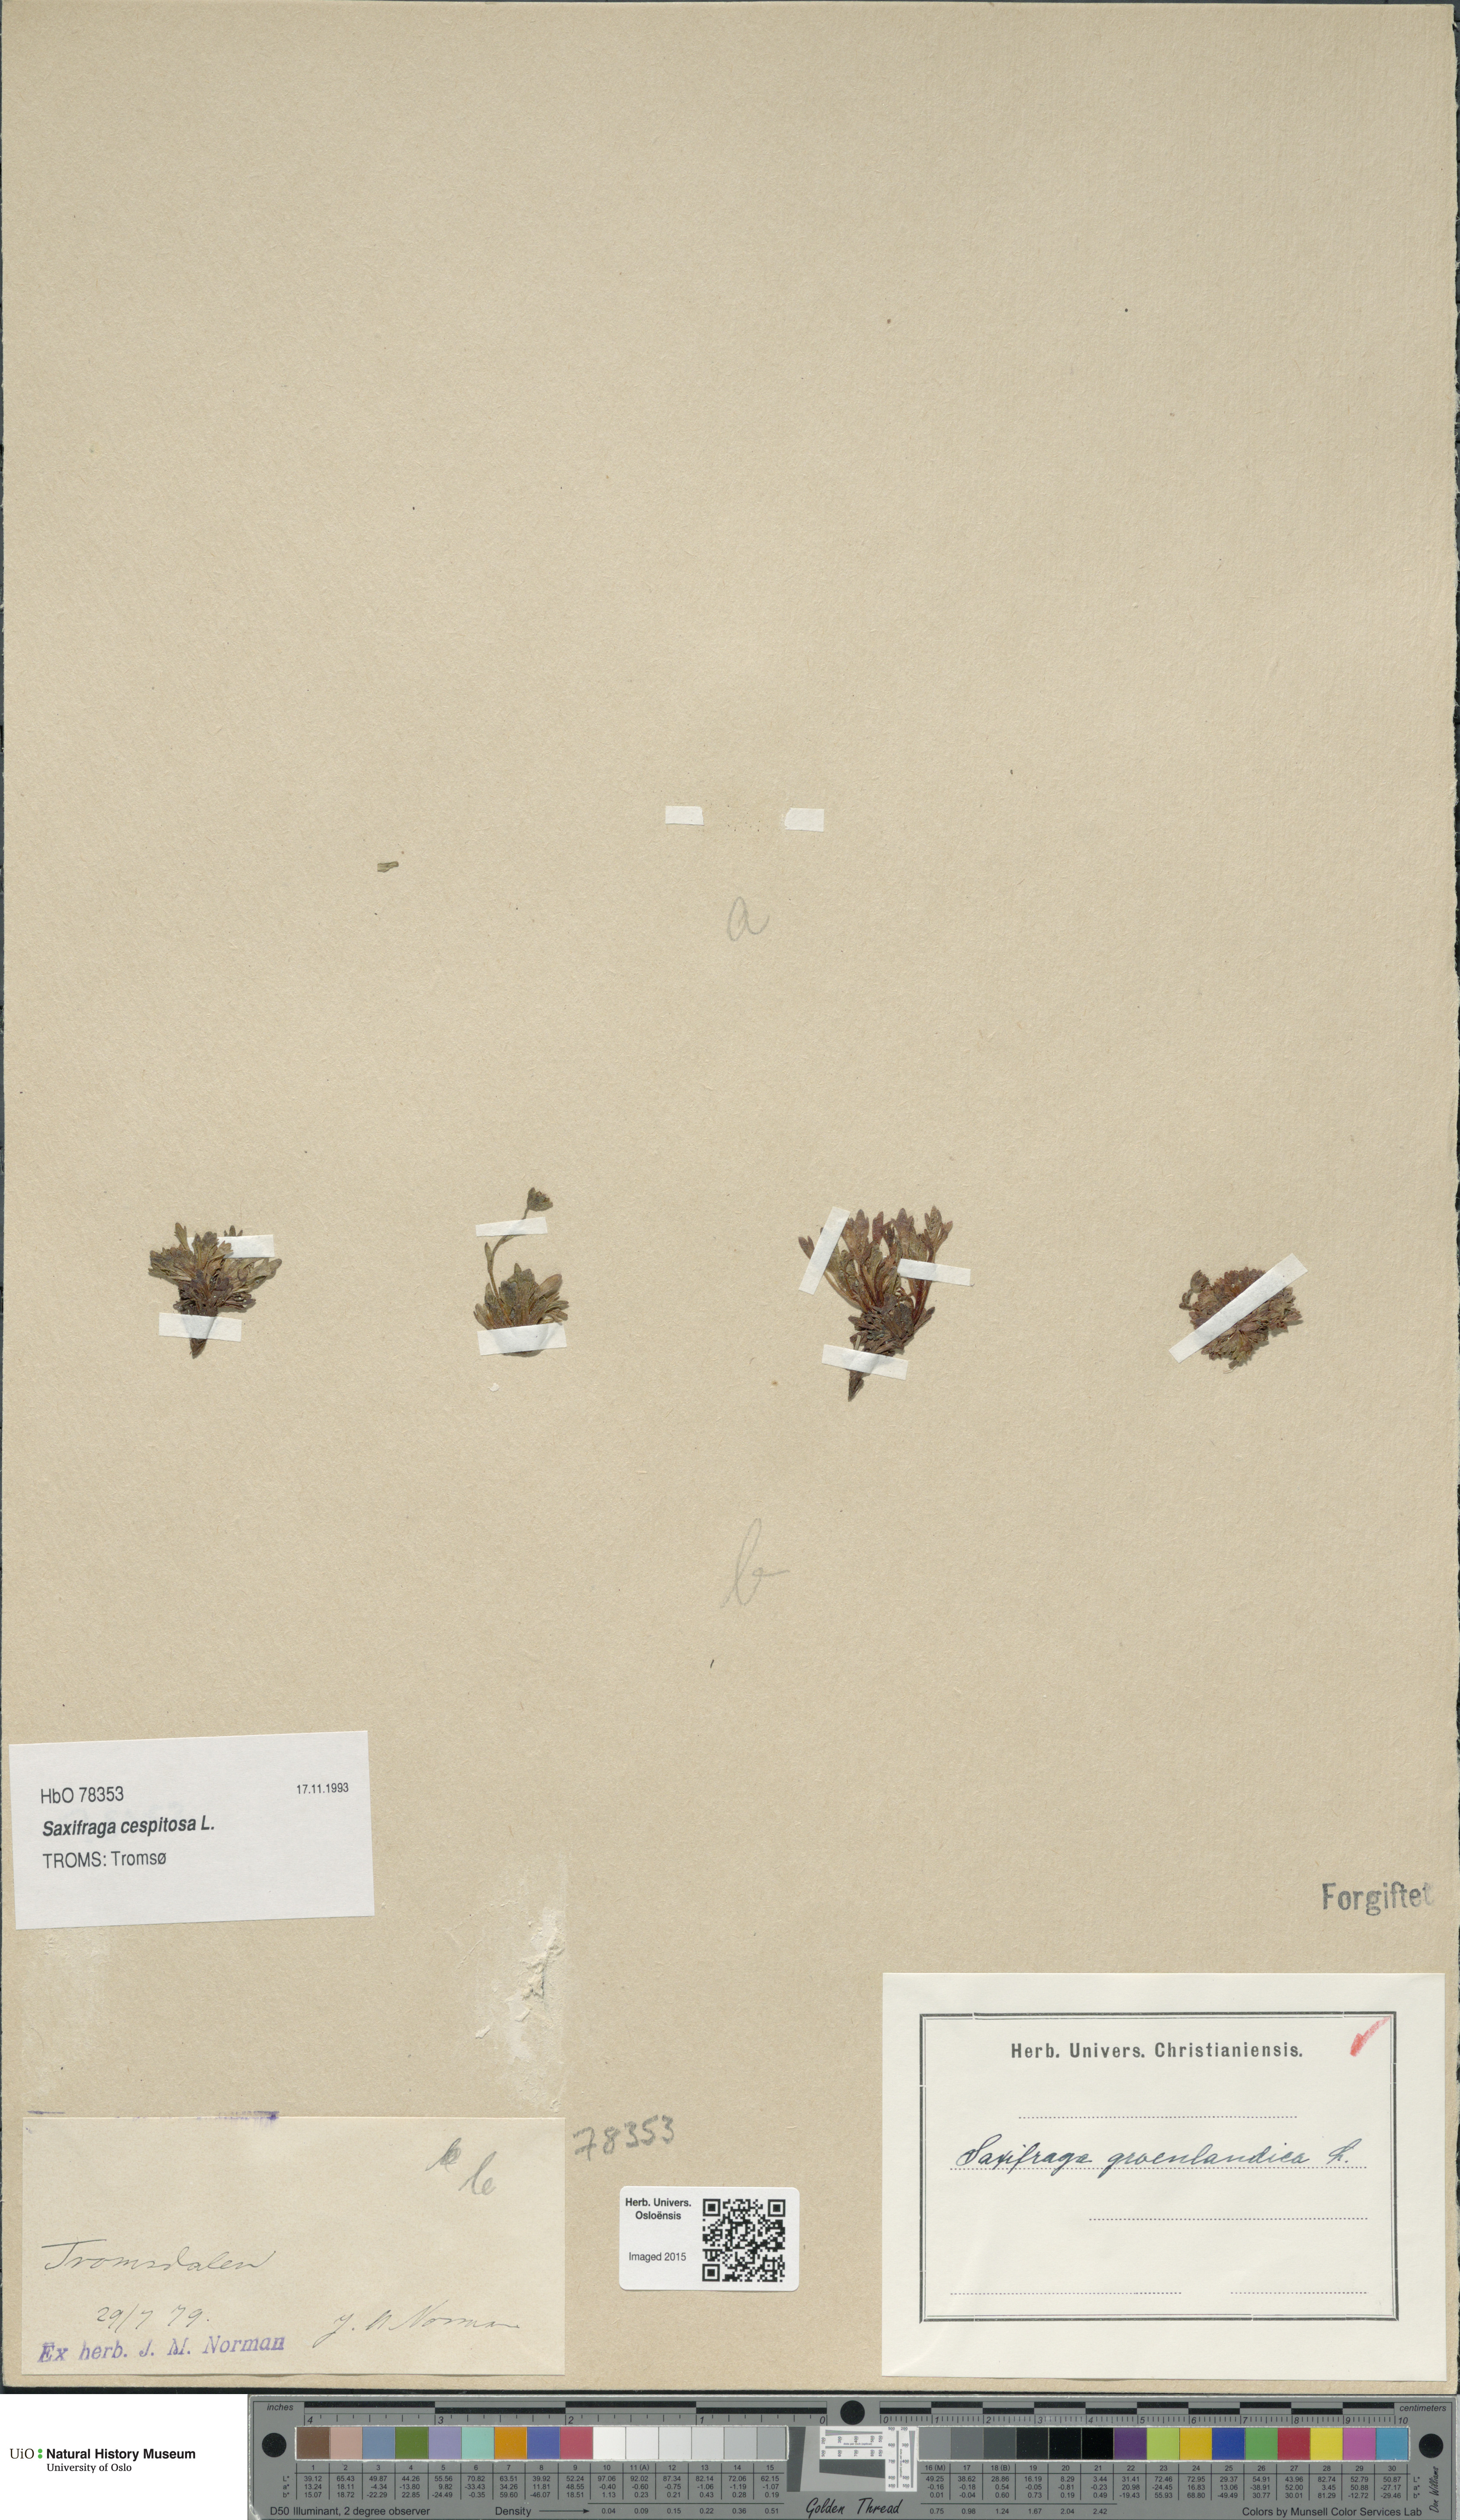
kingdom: Plantae
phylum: Tracheophyta
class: Magnoliopsida
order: Saxifragales
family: Saxifragaceae
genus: Saxifraga
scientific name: Saxifraga cespitosa
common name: Tufted saxifrage
